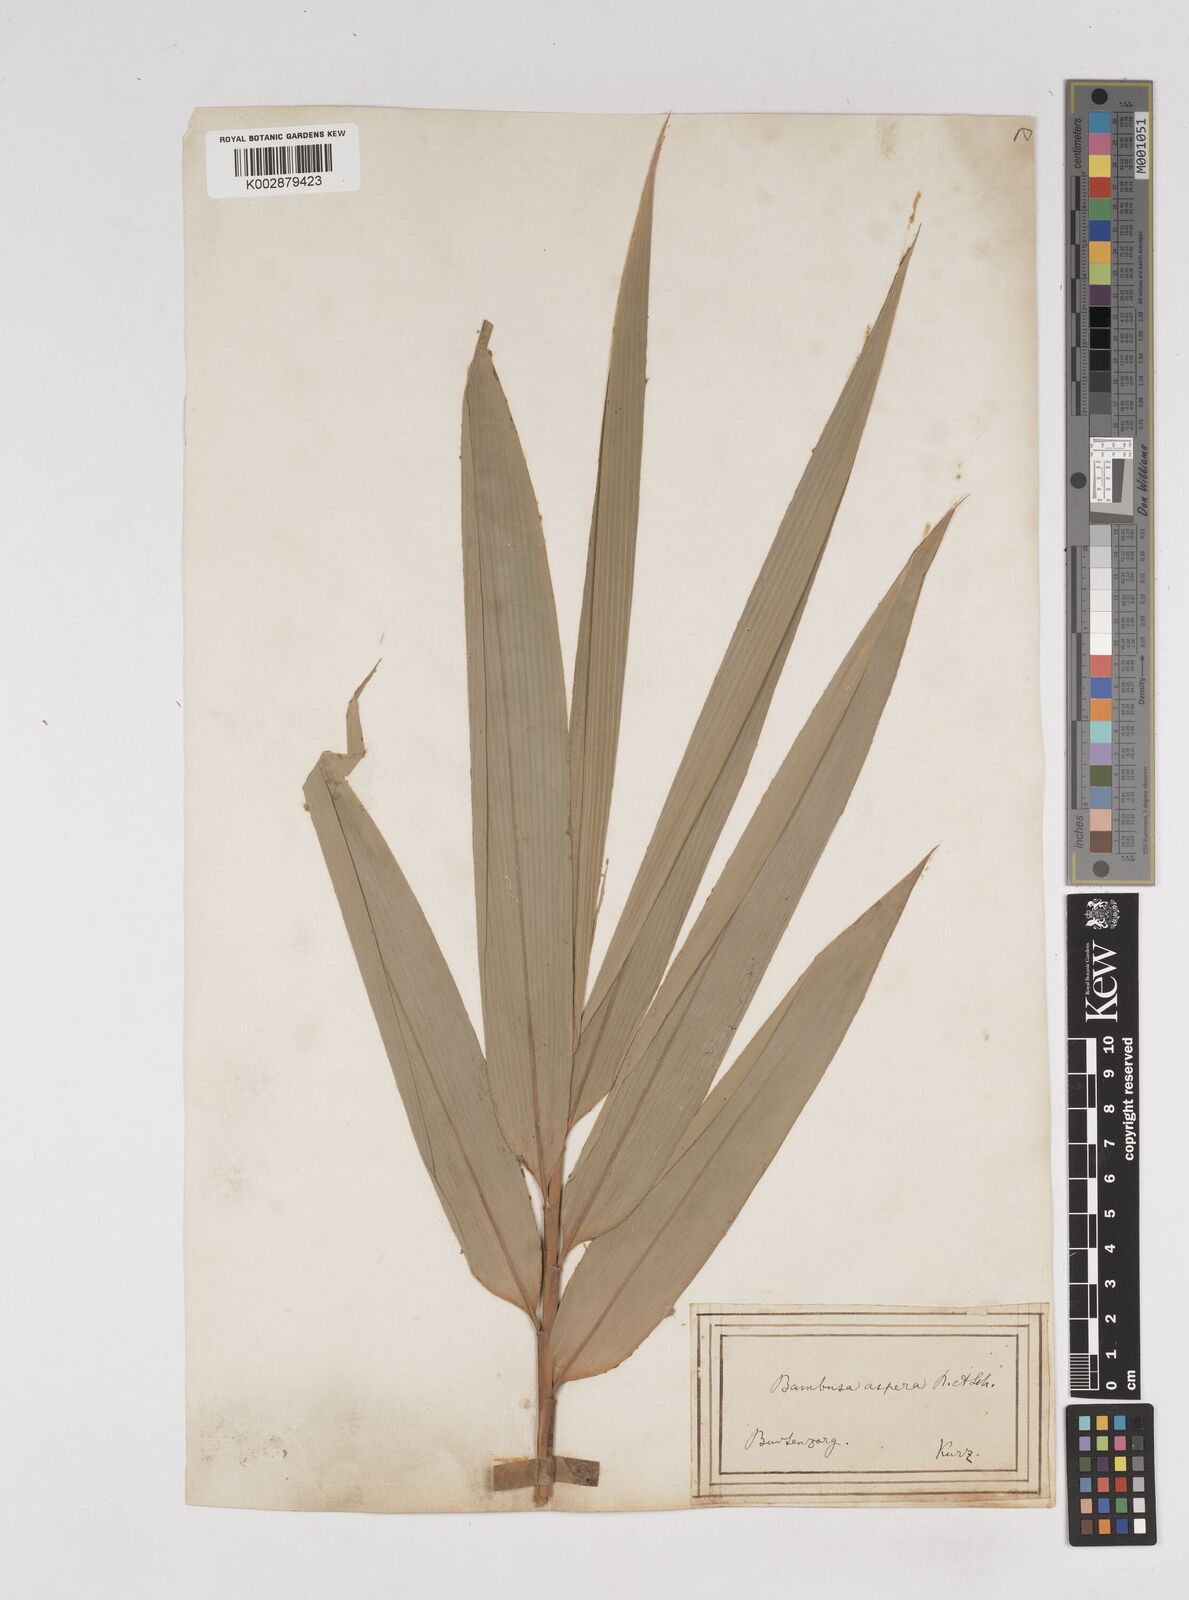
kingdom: Plantae
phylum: Tracheophyta
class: Liliopsida
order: Poales
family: Poaceae
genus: Dendrocalamus
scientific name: Dendrocalamus asper
